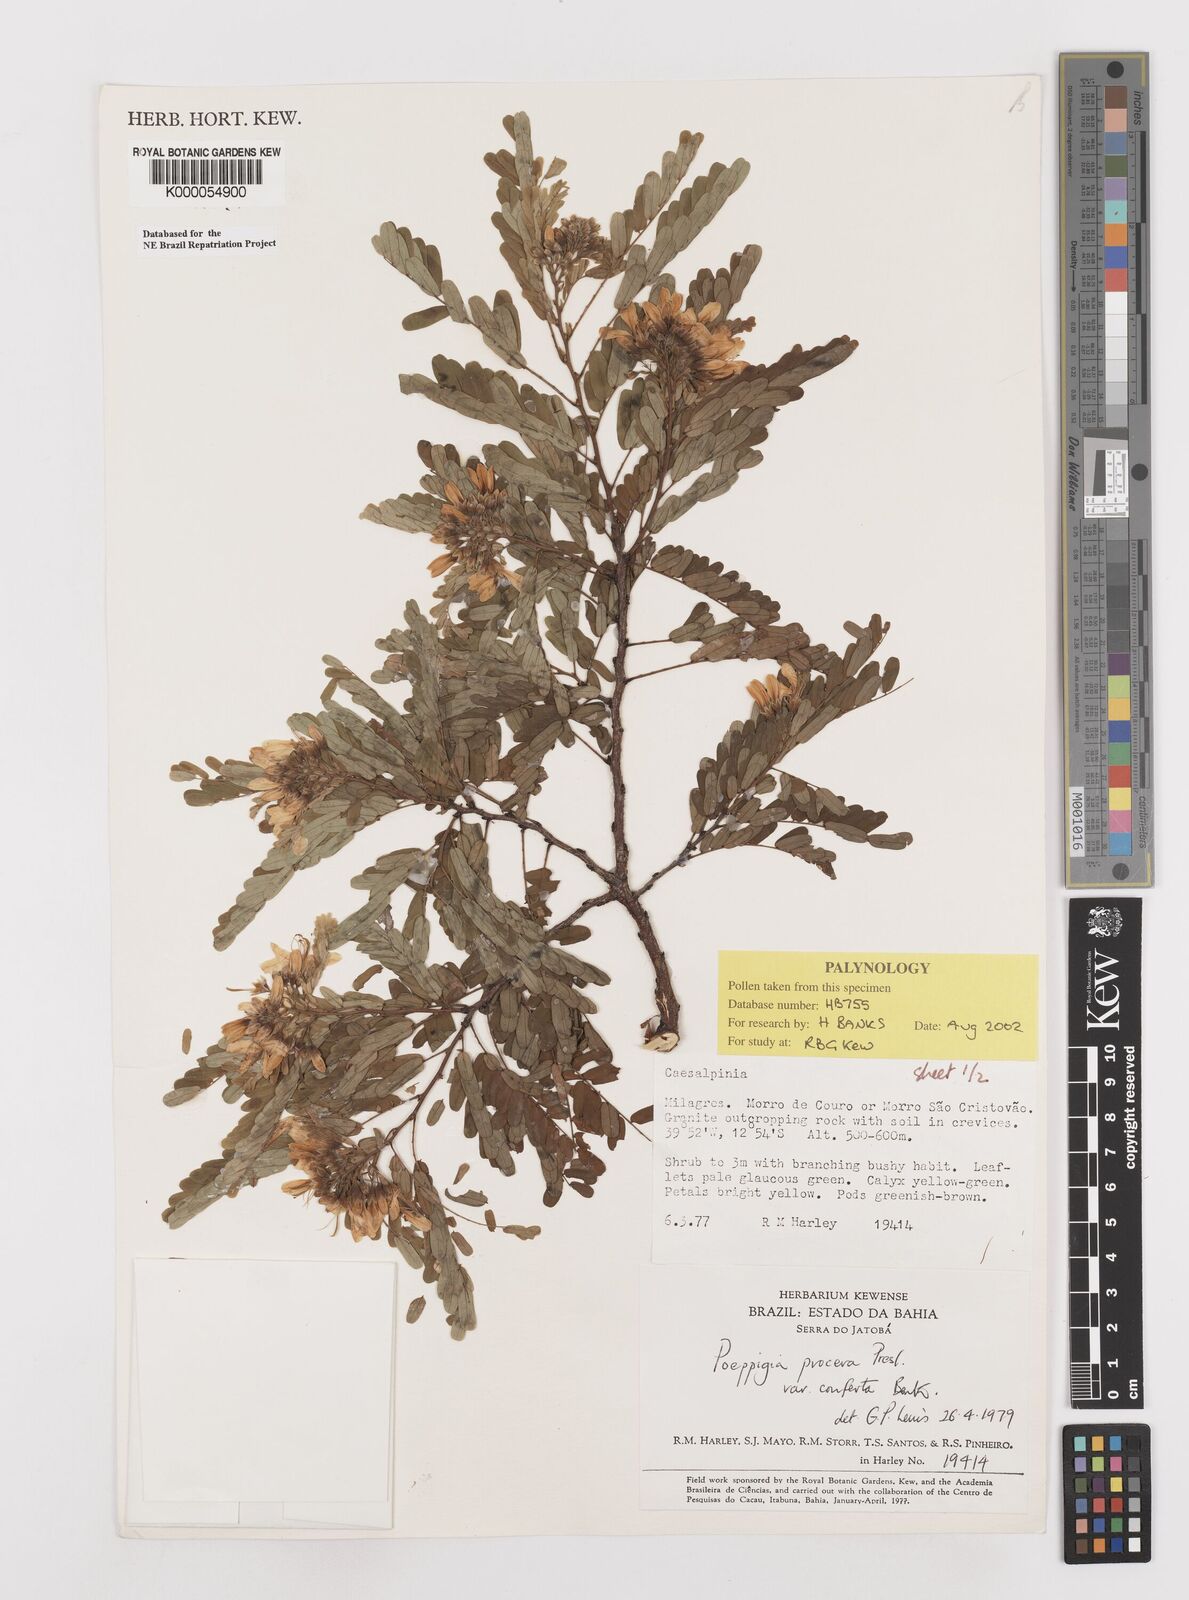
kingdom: Plantae
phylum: Tracheophyta
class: Magnoliopsida
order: Fabales
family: Fabaceae
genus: Poeppigia
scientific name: Poeppigia procera
